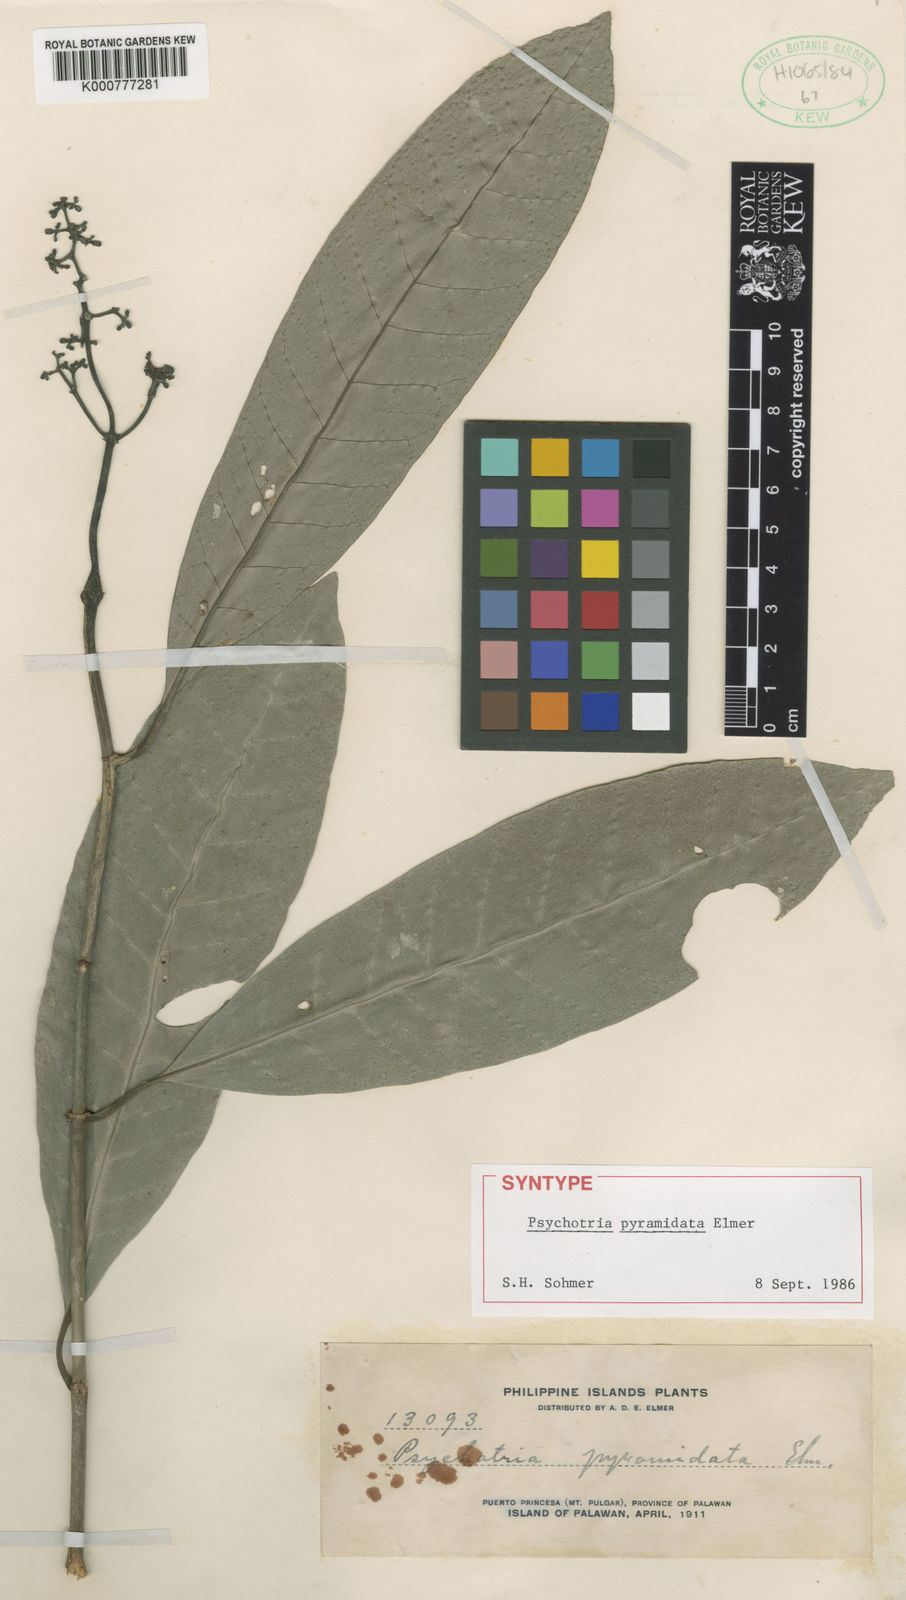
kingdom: Plantae
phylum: Tracheophyta
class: Magnoliopsida
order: Gentianales
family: Rubiaceae
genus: Psychotria
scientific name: Psychotria pyramidata
